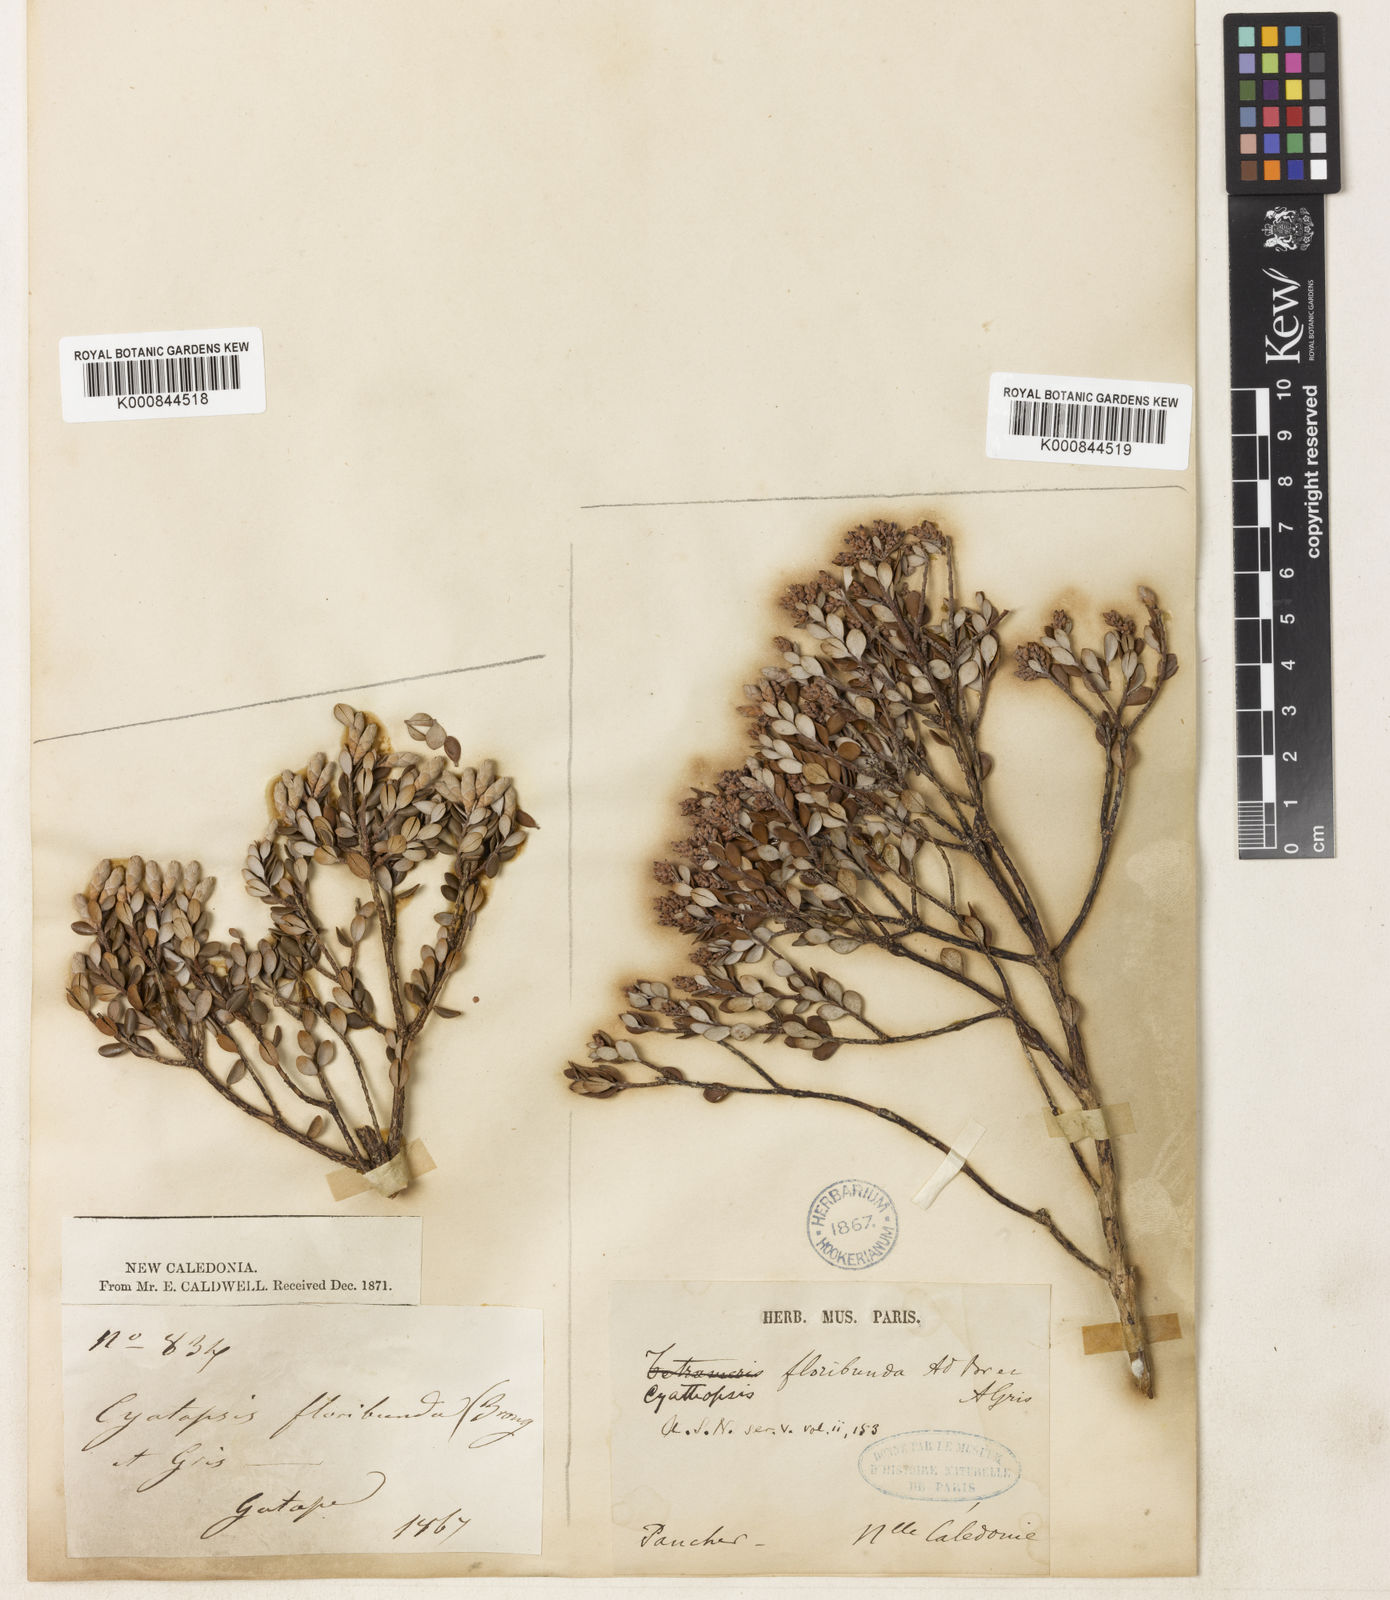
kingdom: Plantae
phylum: Tracheophyta
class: Magnoliopsida
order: Ericales
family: Ericaceae
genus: Cyathopsis
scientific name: Cyathopsis floribunda
